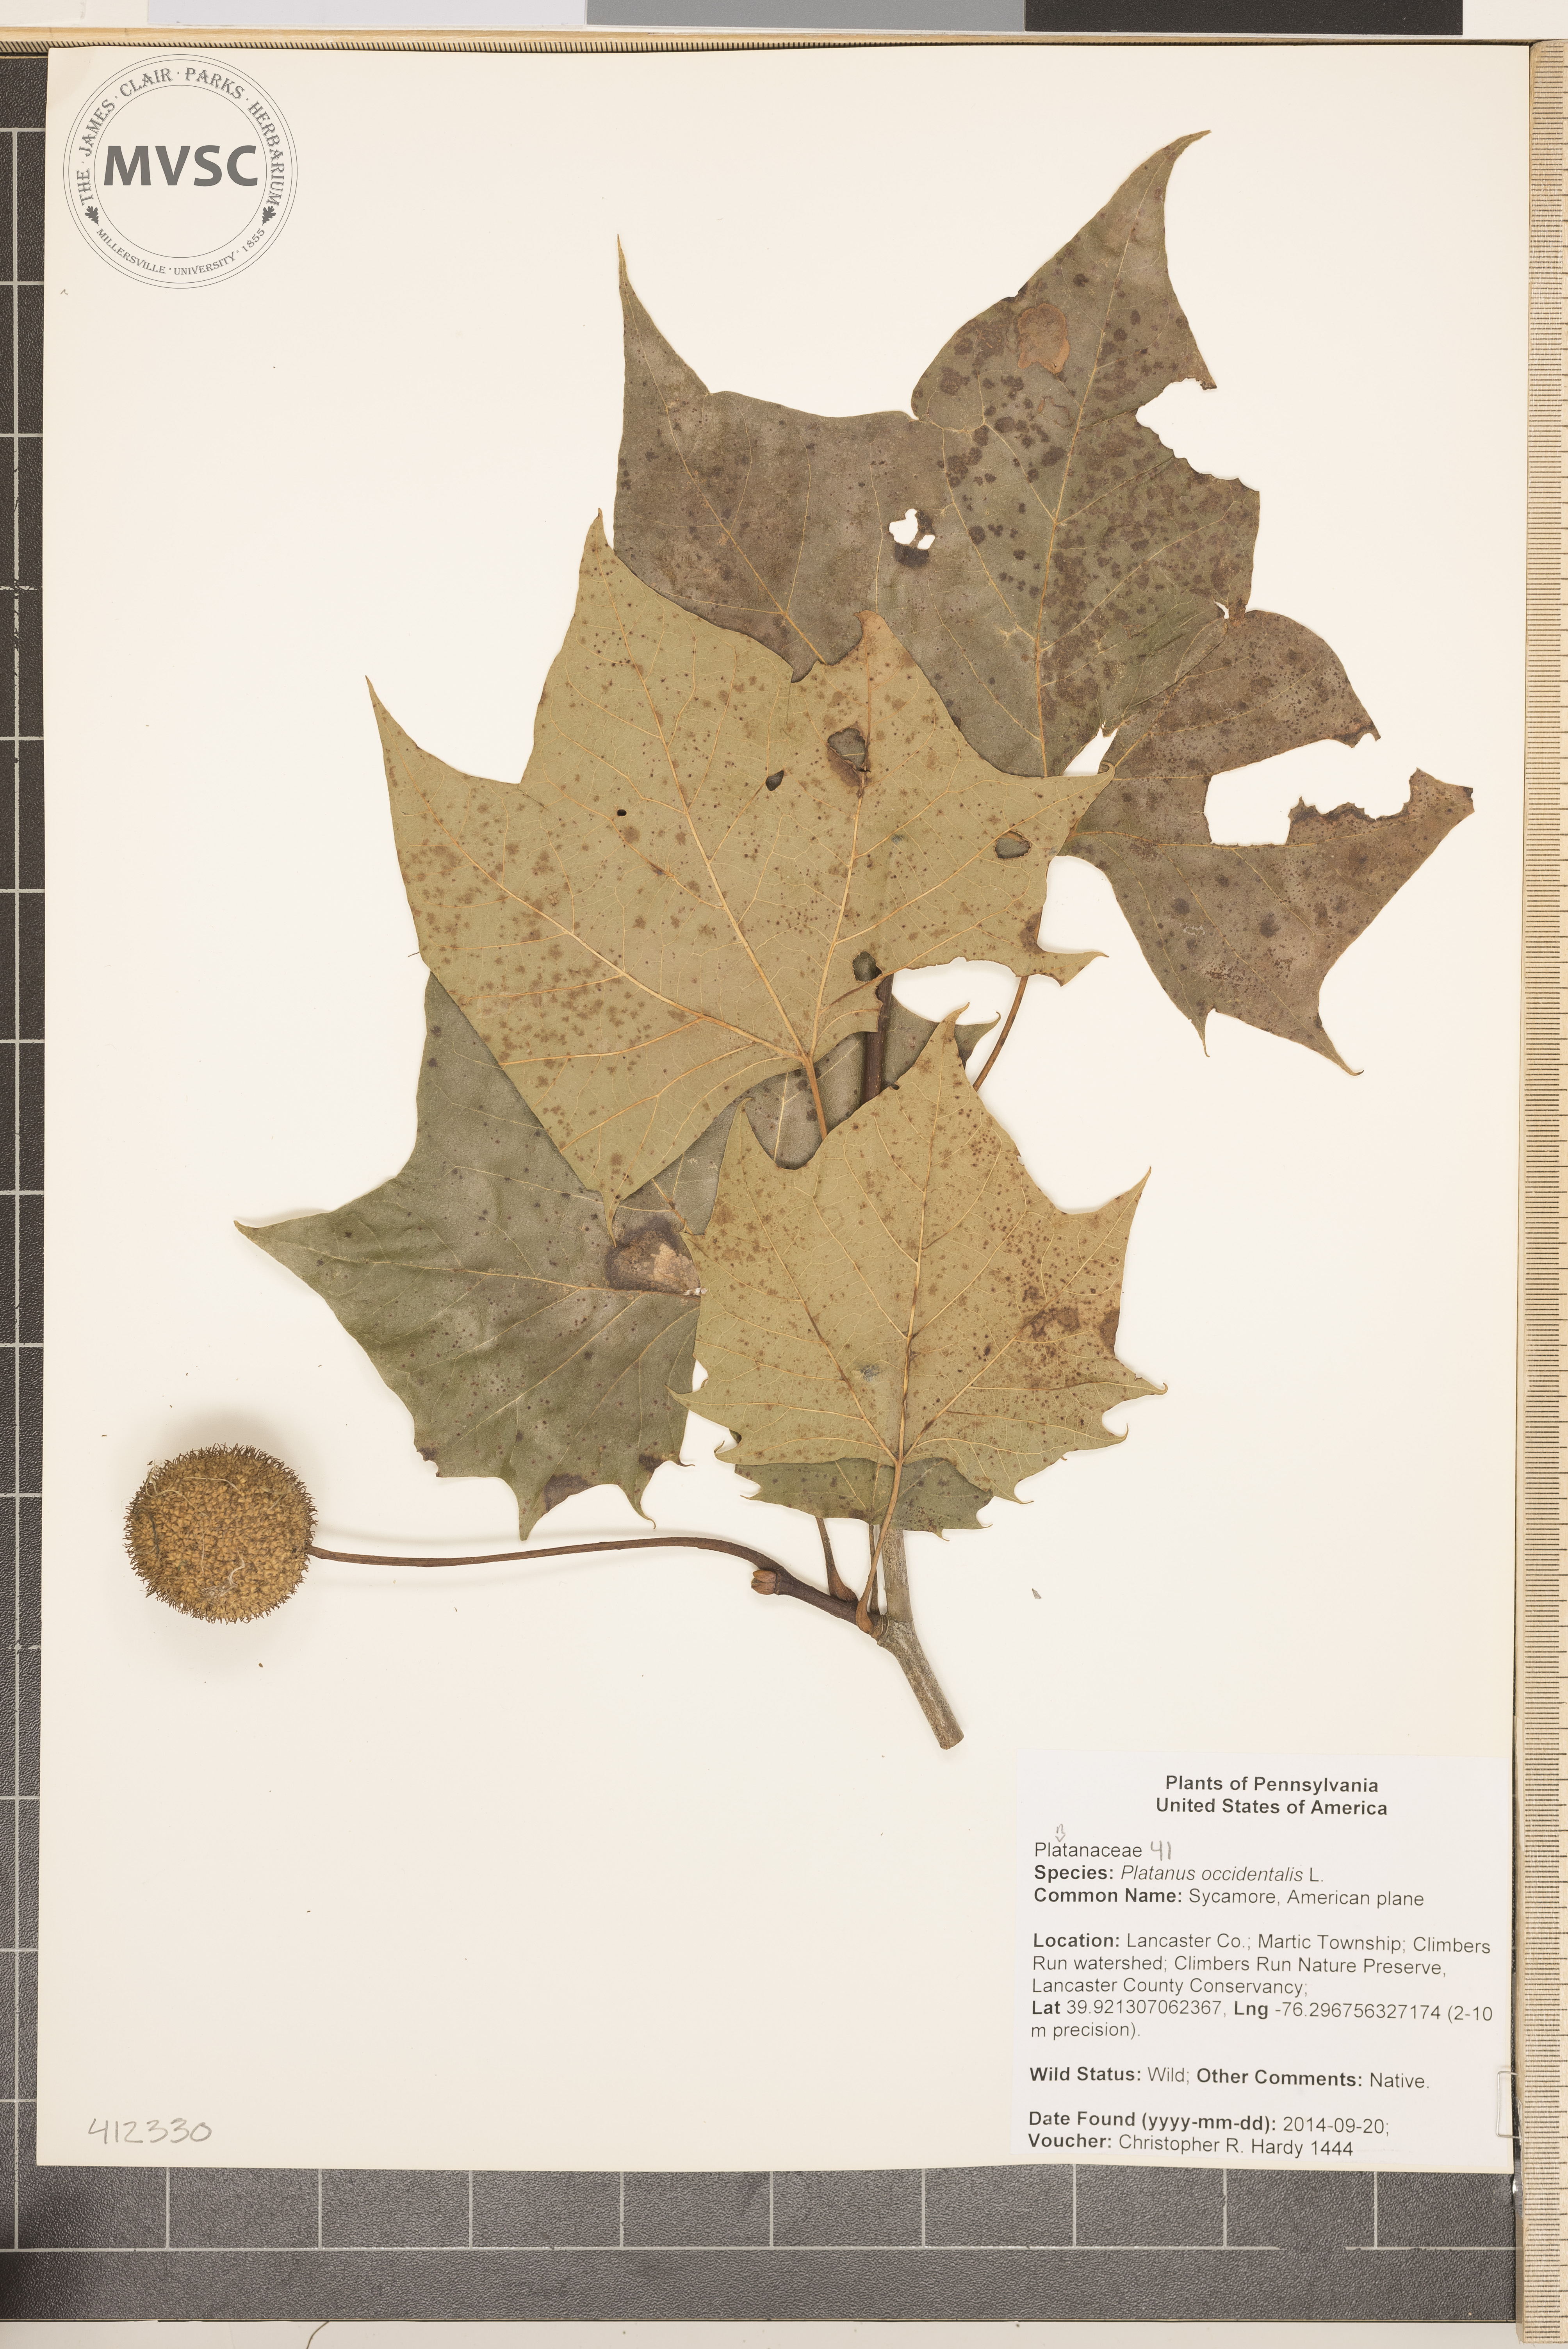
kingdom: Plantae
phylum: Tracheophyta
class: Magnoliopsida
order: Proteales
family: Platanaceae
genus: Platanus
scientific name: Platanus occidentalis
